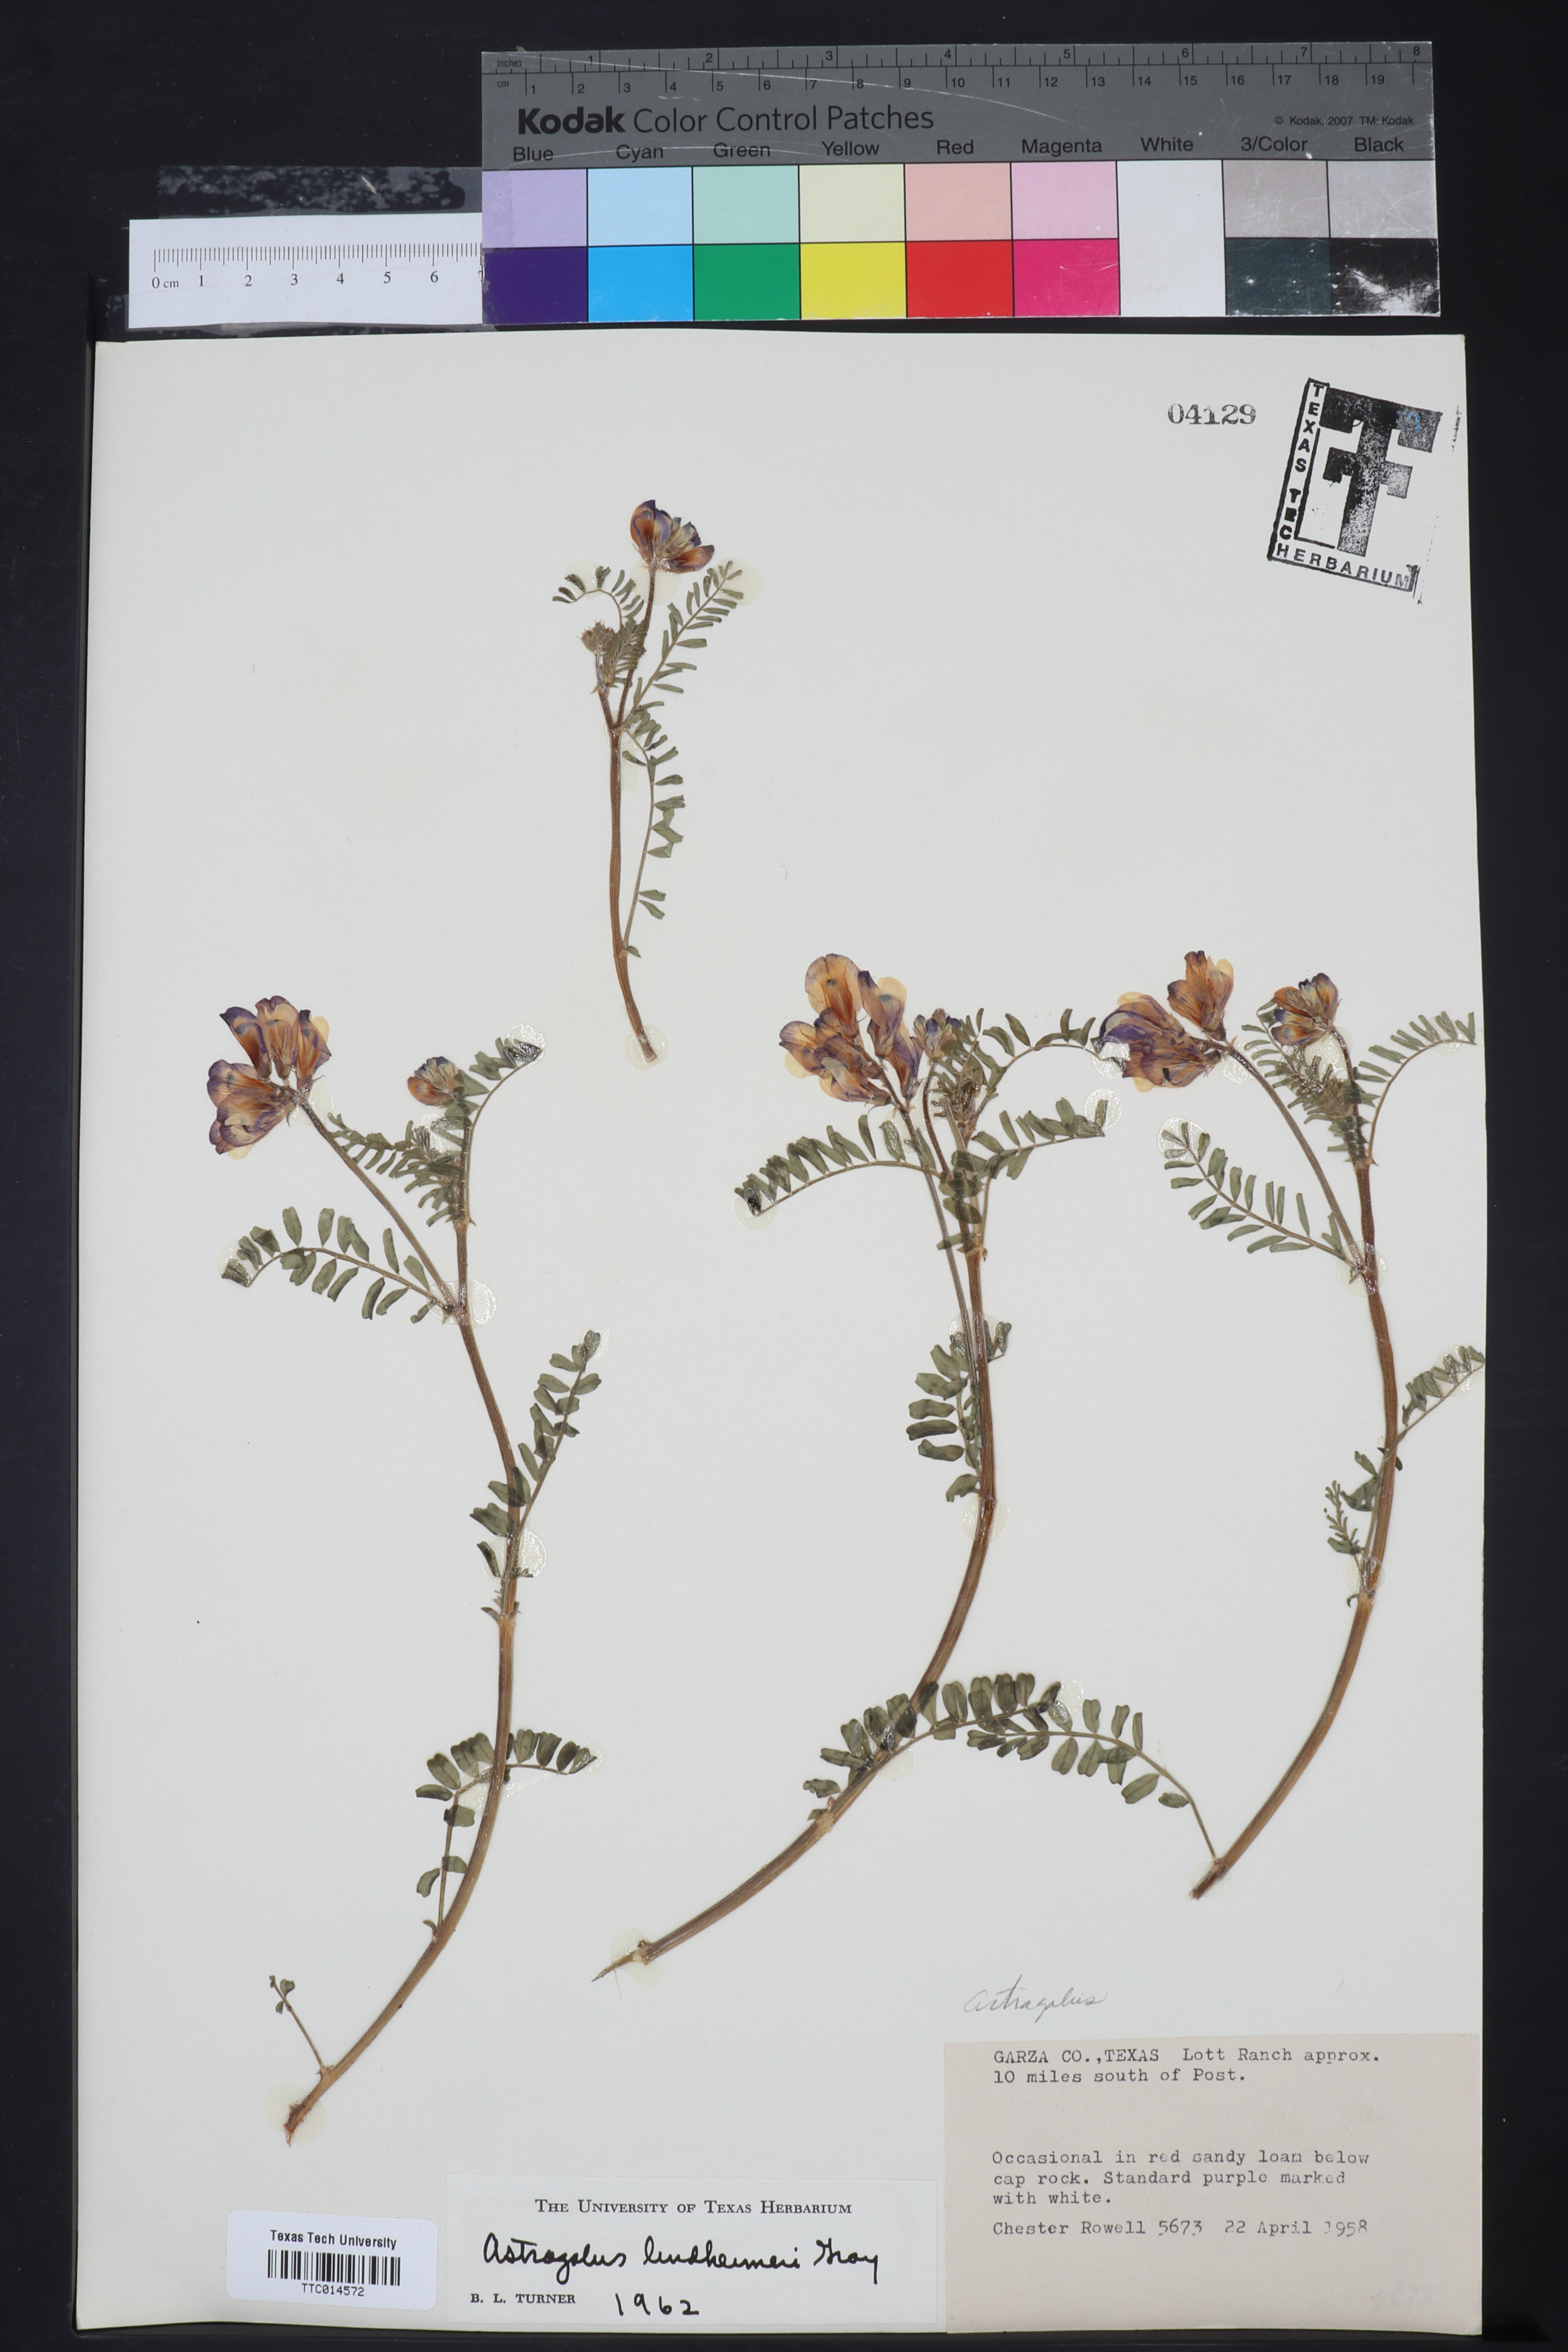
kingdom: Plantae
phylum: Tracheophyta
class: Magnoliopsida
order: Fabales
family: Fabaceae
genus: Astragalus
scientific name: Astragalus lindheimeri
